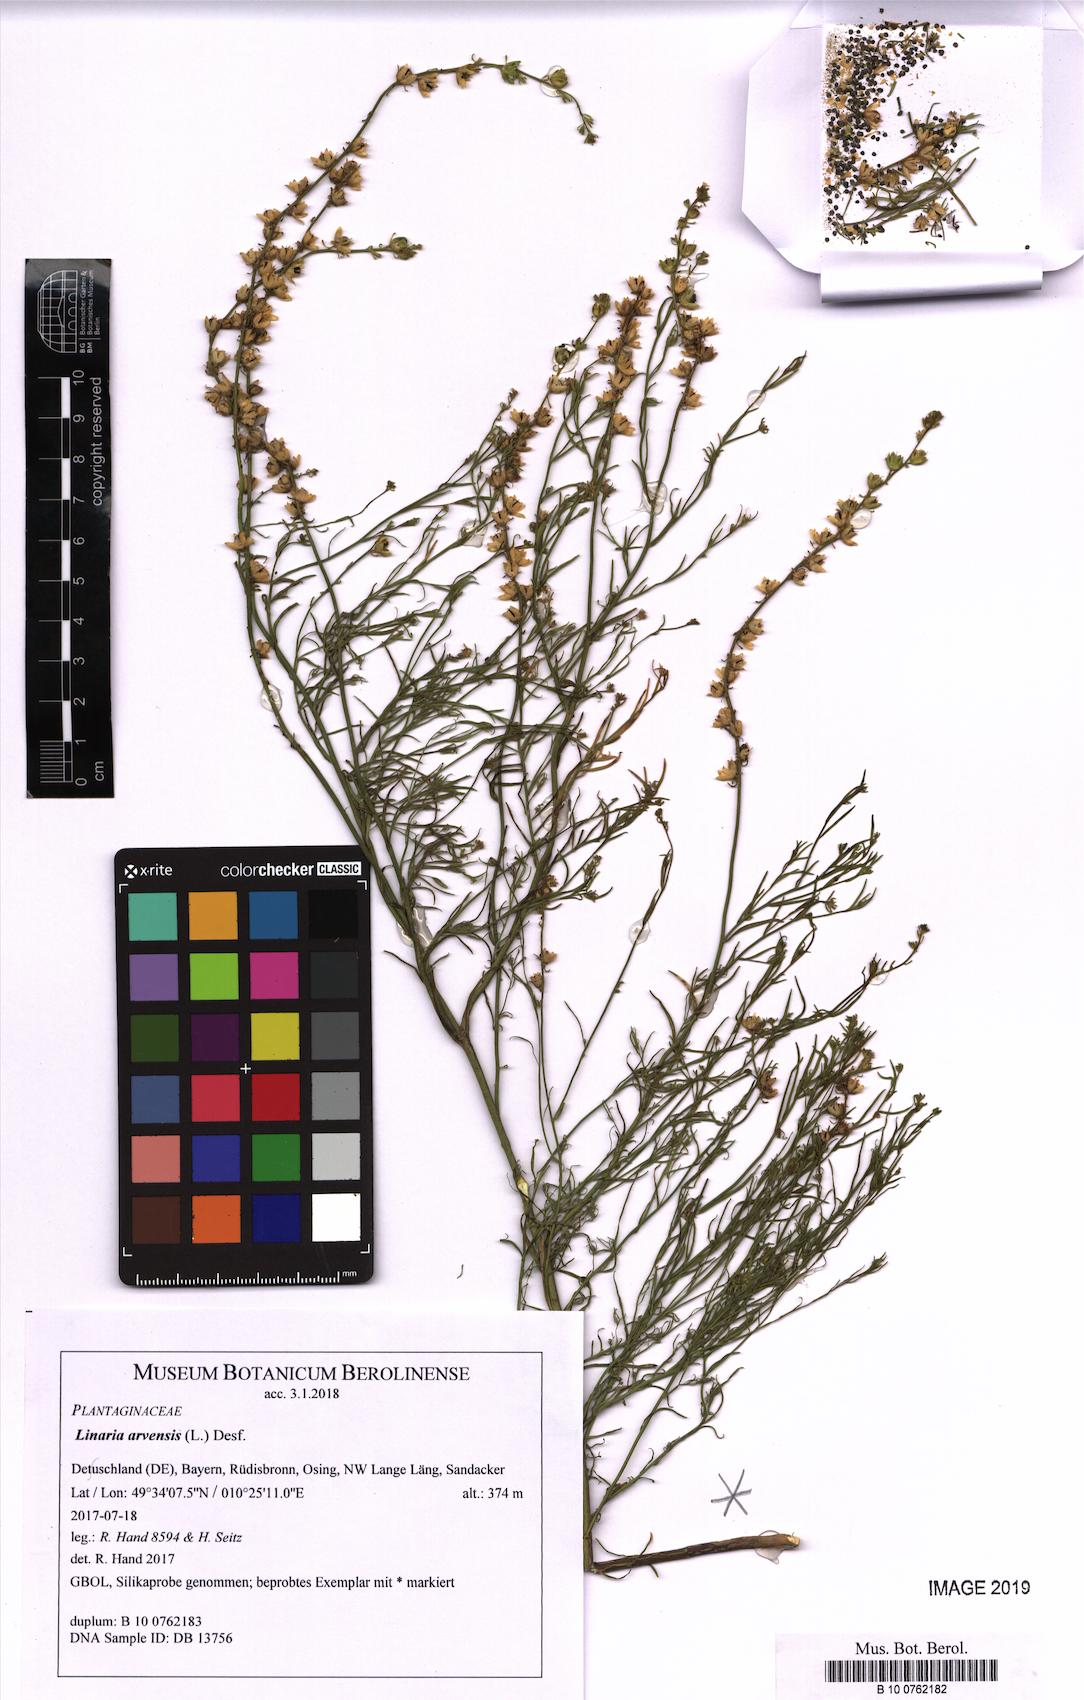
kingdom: Plantae
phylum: Tracheophyta
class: Magnoliopsida
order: Lamiales
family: Plantaginaceae
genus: Linaria
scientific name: Linaria arvensis
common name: Corn toadflax
